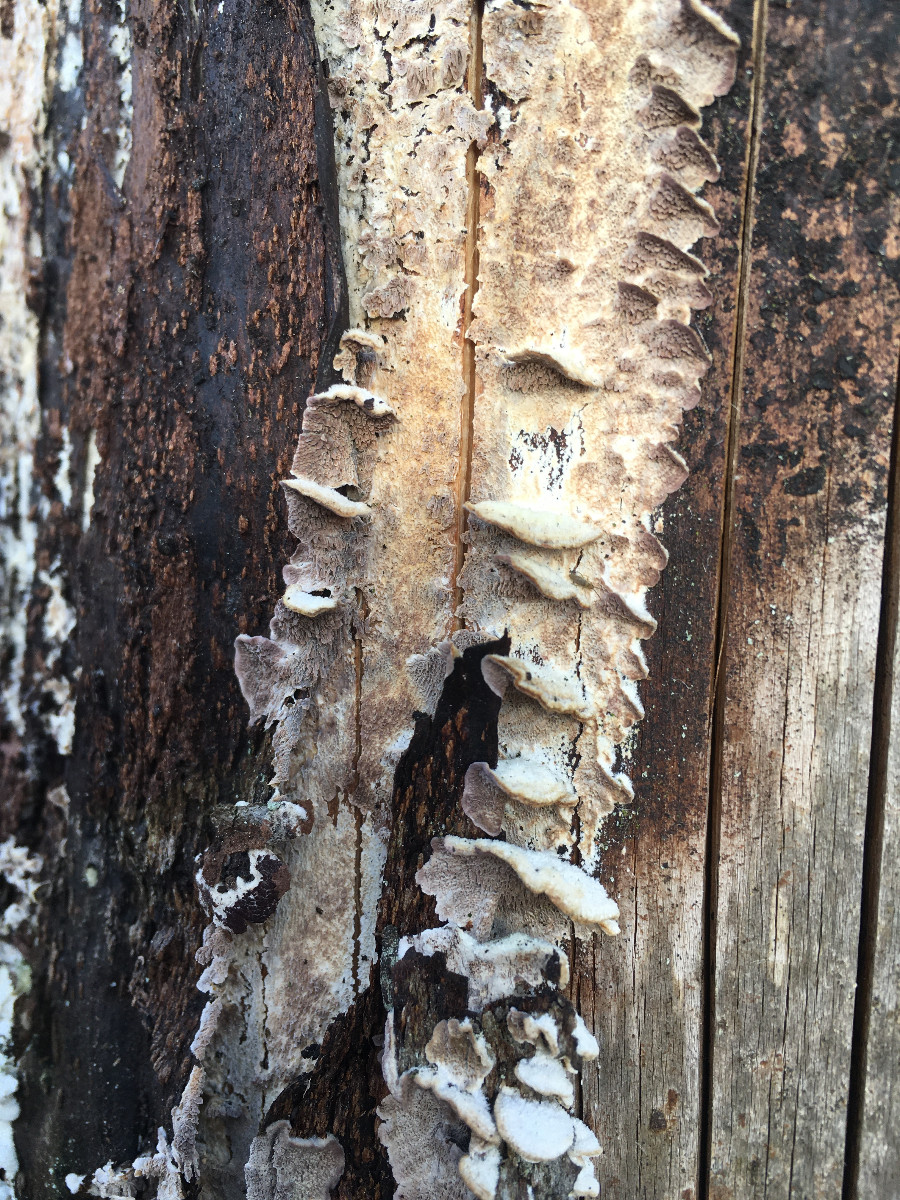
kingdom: Fungi
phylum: Basidiomycota
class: Agaricomycetes
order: Polyporales
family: Polyporaceae
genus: Trichaptum
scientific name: Trichaptum
